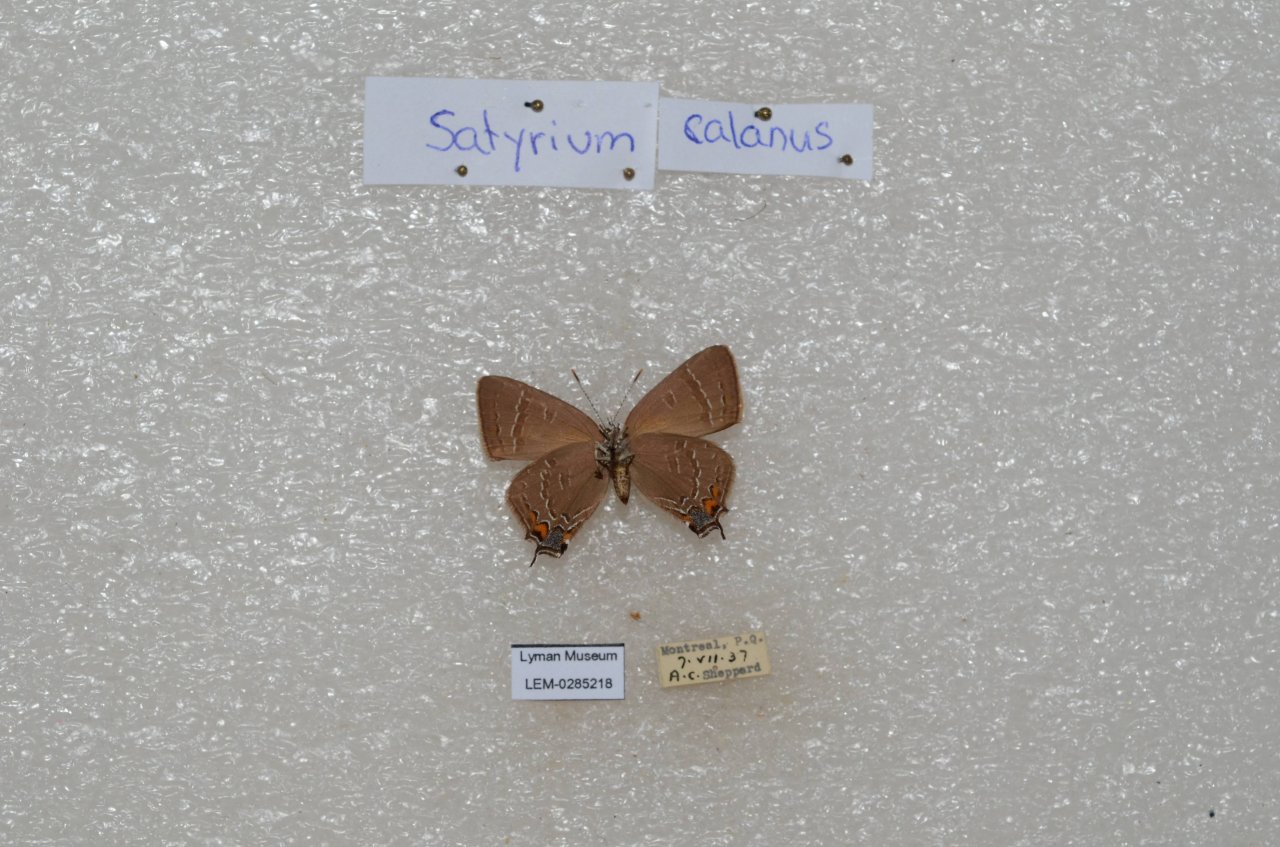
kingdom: Animalia
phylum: Arthropoda
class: Insecta
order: Lepidoptera
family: Lycaenidae
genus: Satyrium
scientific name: Satyrium calanus
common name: Banded Hairstreak
